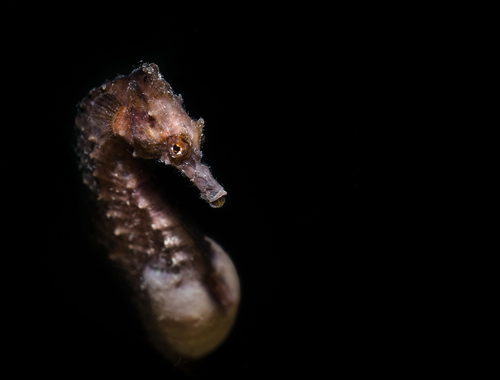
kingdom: Animalia
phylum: Chordata
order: Syngnathiformes
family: Syngnathidae
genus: Hippocampus
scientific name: Hippocampus hippocampus
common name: Short-snouted seahorse
